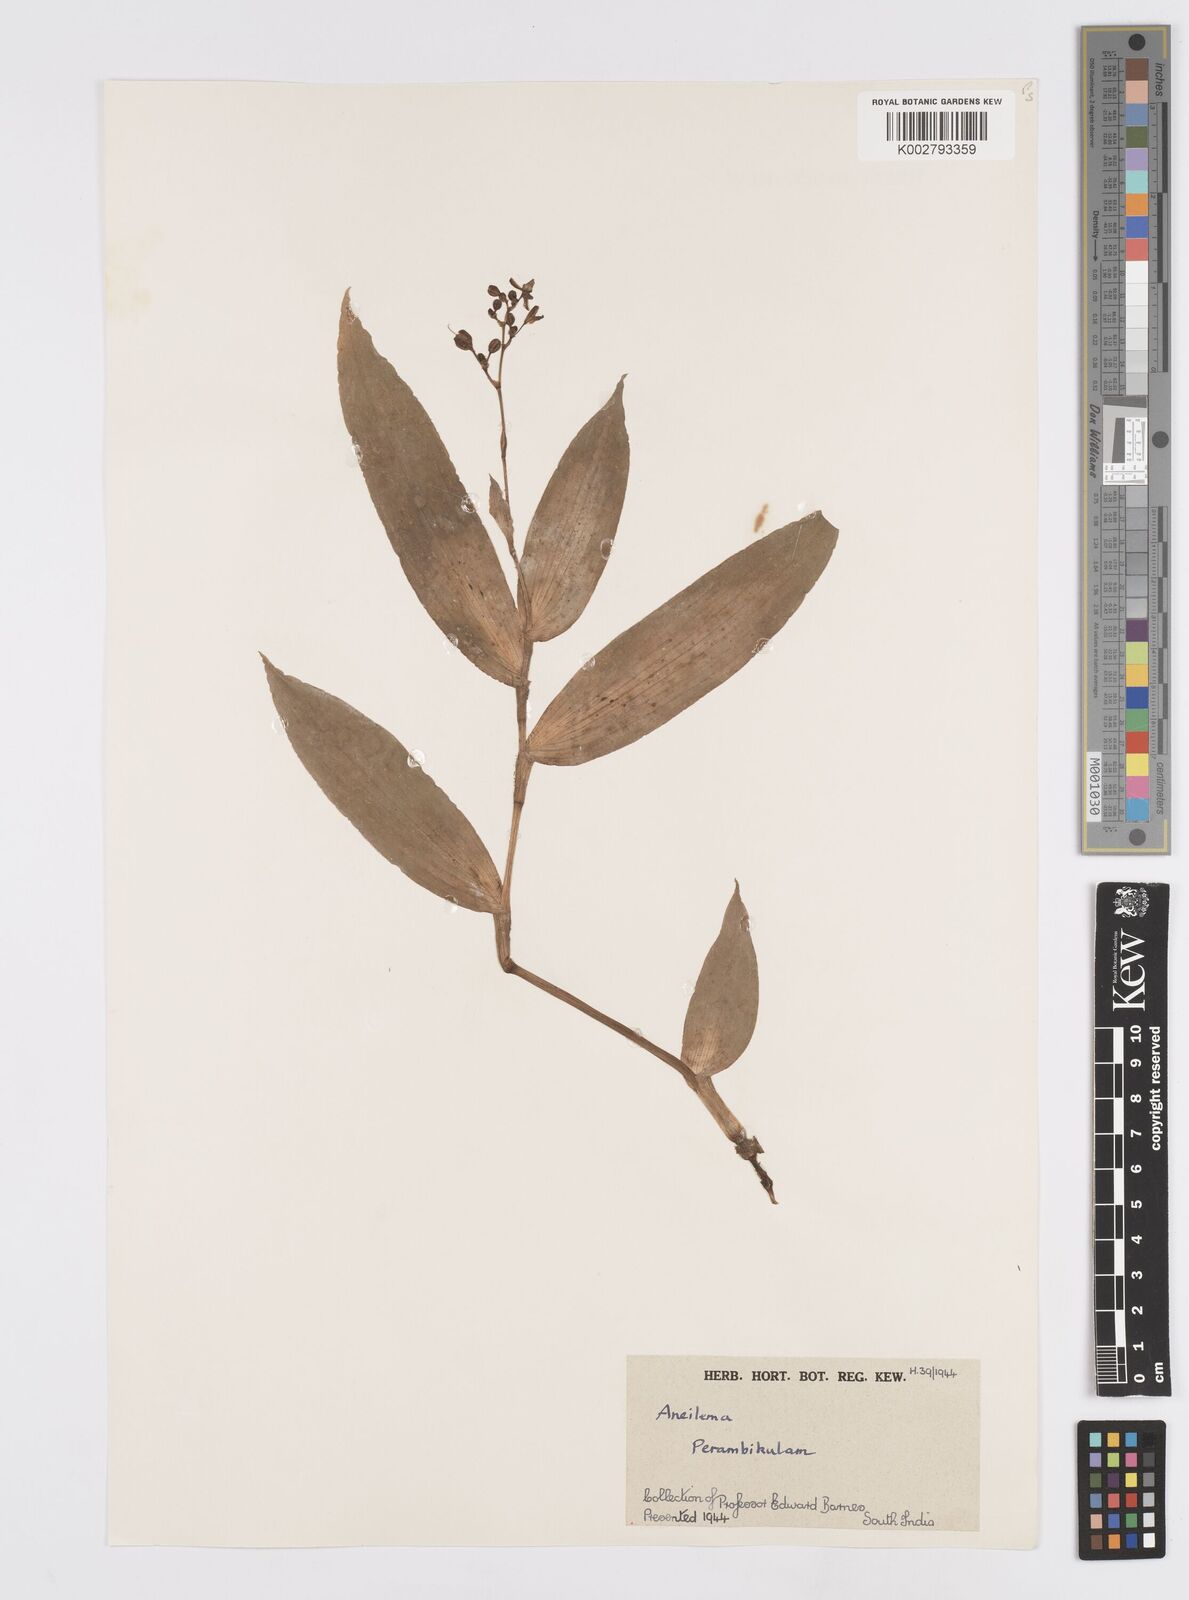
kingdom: Plantae
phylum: Tracheophyta
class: Liliopsida
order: Commelinales
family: Commelinaceae
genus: Murdannia
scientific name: Murdannia
